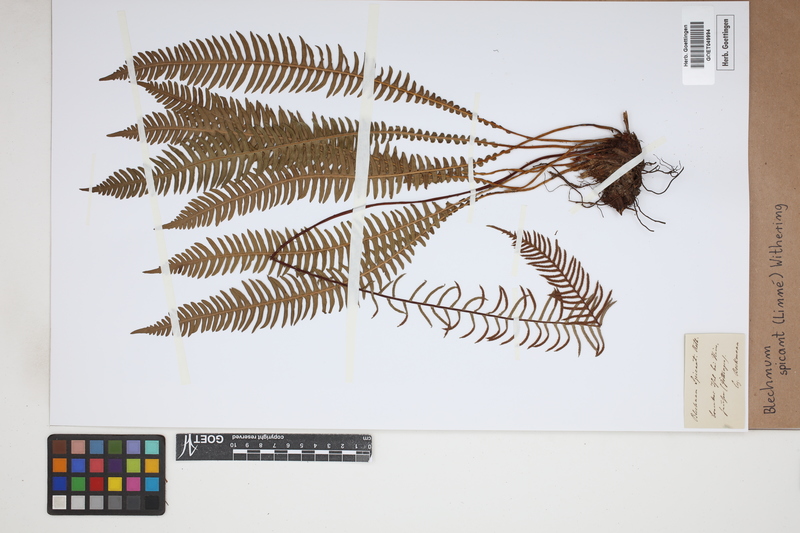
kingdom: Plantae
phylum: Tracheophyta
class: Polypodiopsida
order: Polypodiales
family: Blechnaceae
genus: Struthiopteris
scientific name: Struthiopteris spicant
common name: Deer fern
